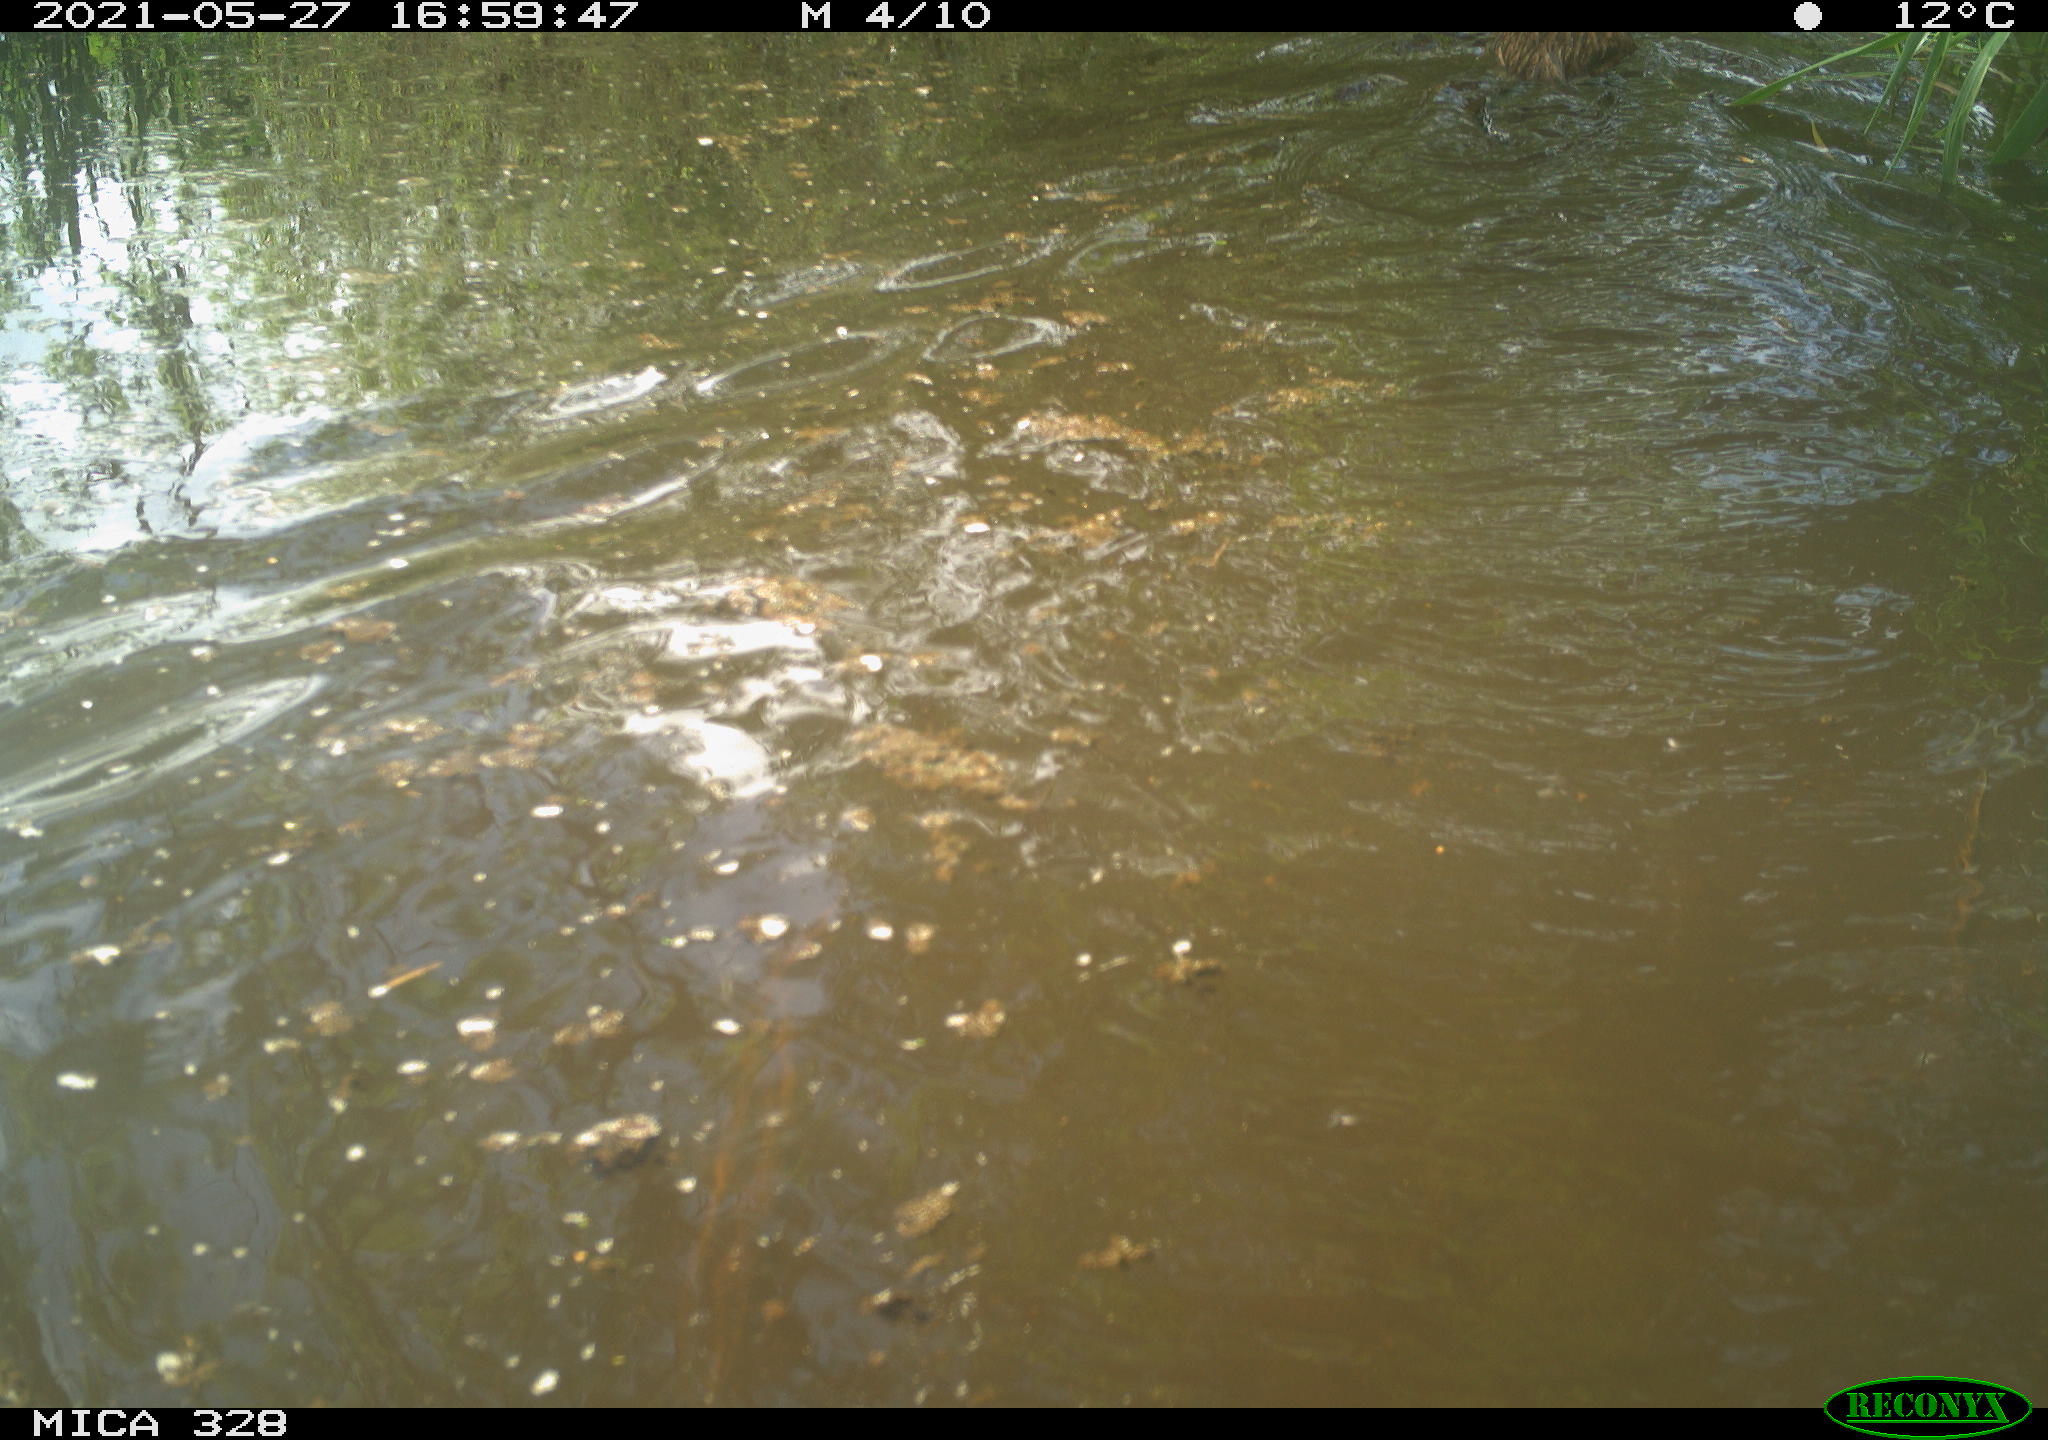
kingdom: Animalia
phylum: Chordata
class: Mammalia
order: Rodentia
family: Cricetidae
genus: Ondatra
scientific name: Ondatra zibethicus
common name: Muskrat
